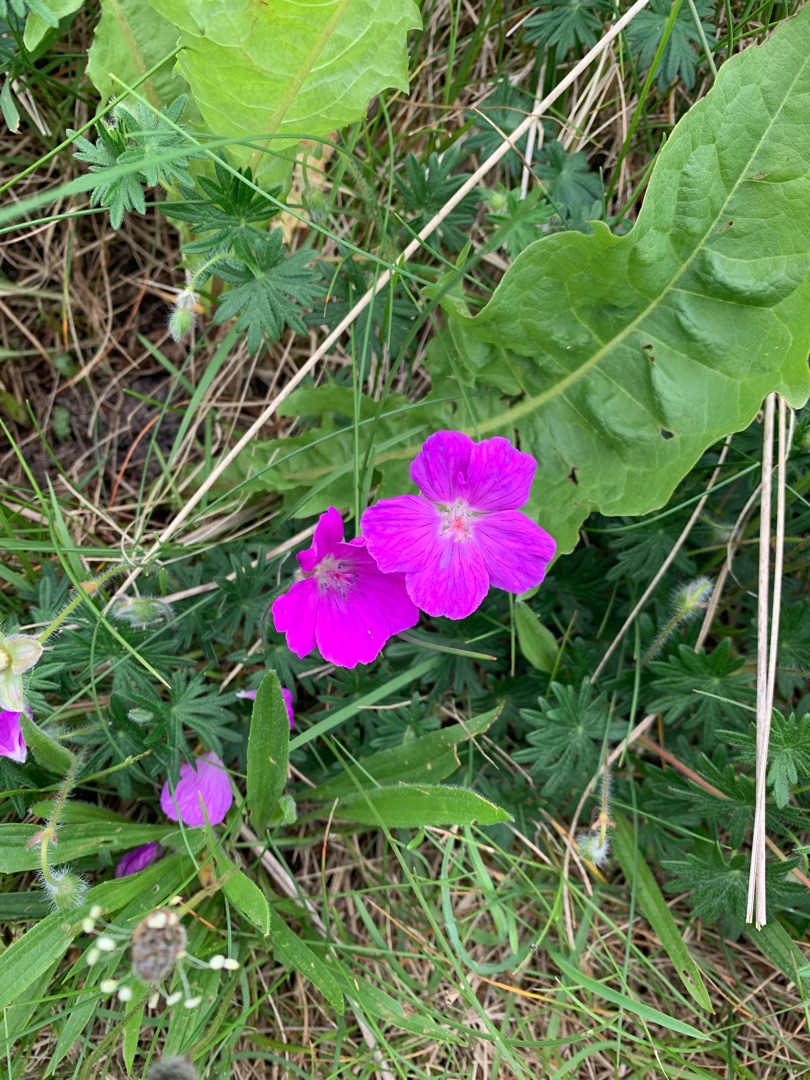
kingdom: Plantae
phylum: Tracheophyta
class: Magnoliopsida
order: Geraniales
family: Geraniaceae
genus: Geranium
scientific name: Geranium sanguineum
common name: Blodrød storkenæb
